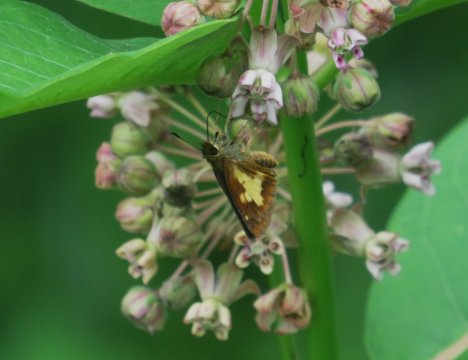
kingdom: Animalia
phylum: Arthropoda
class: Insecta
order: Lepidoptera
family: Hesperiidae
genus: Poanes
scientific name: Poanes massasoit
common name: Mulberry Wing
